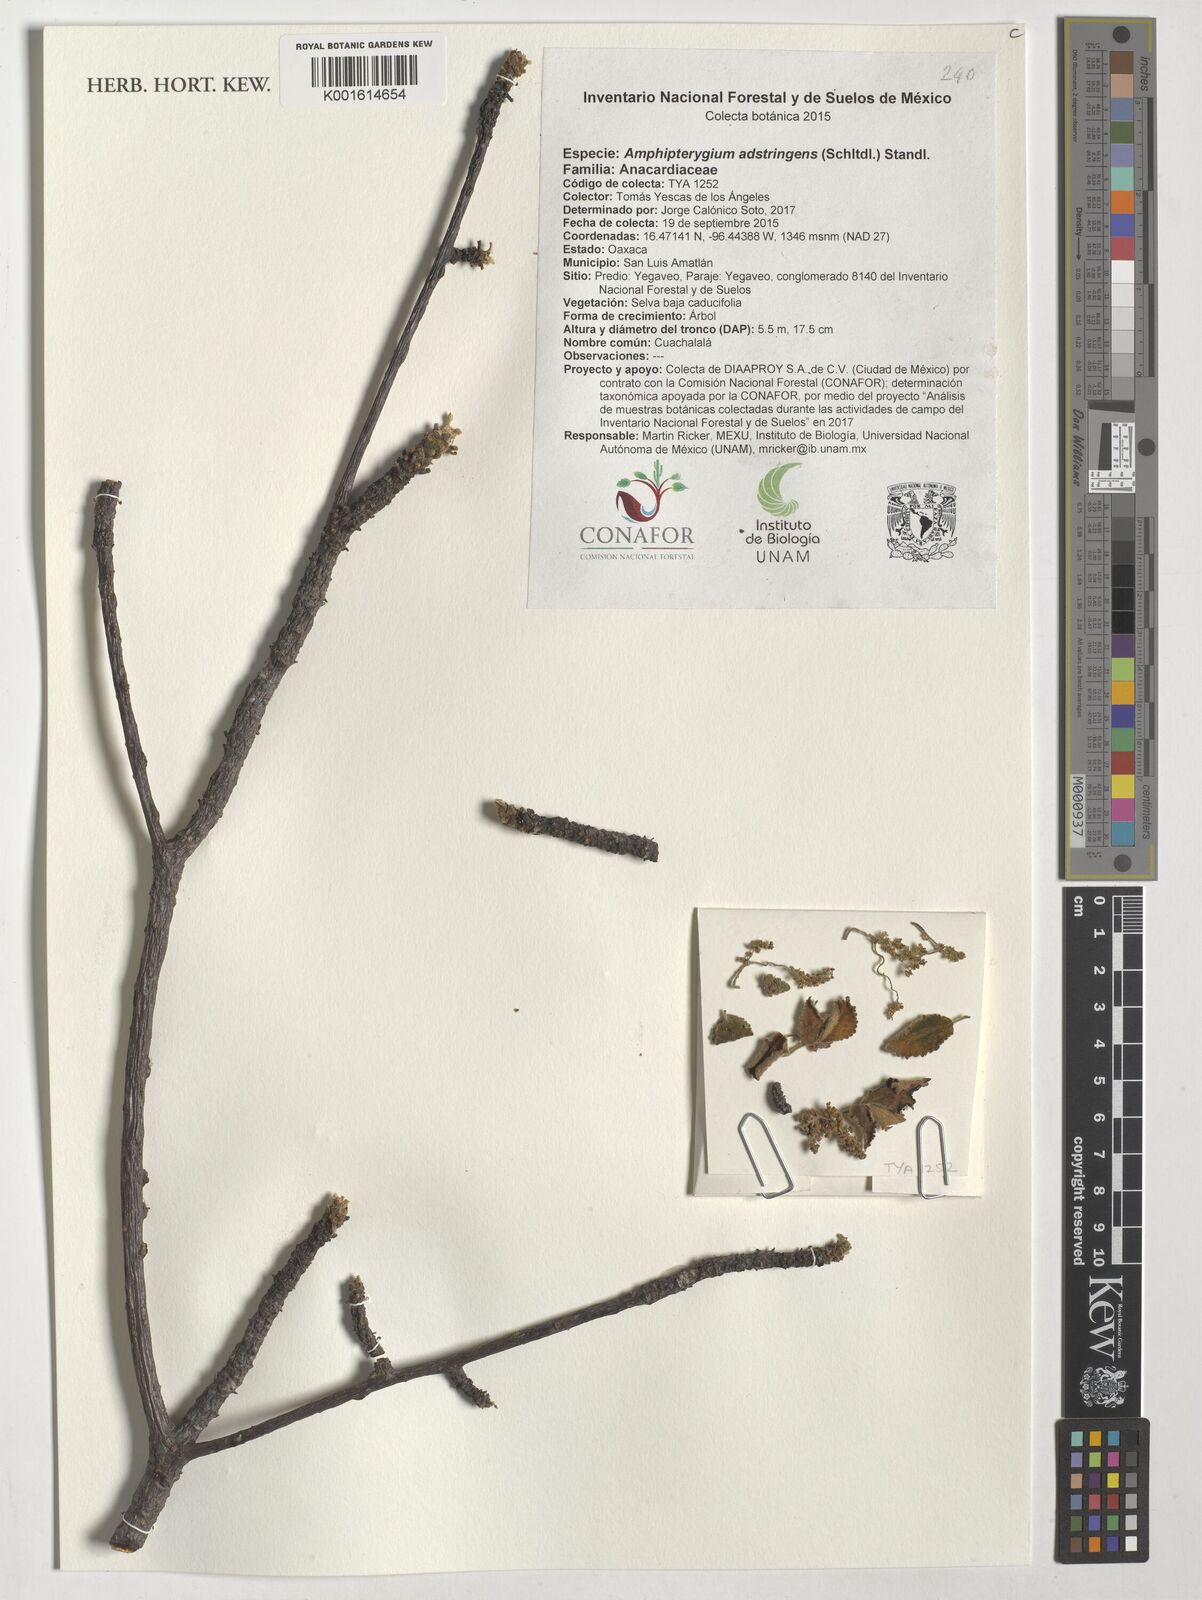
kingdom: Plantae
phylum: Tracheophyta
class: Magnoliopsida
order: Sapindales
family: Anacardiaceae
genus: Amphipterygium
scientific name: Amphipterygium adstringens
